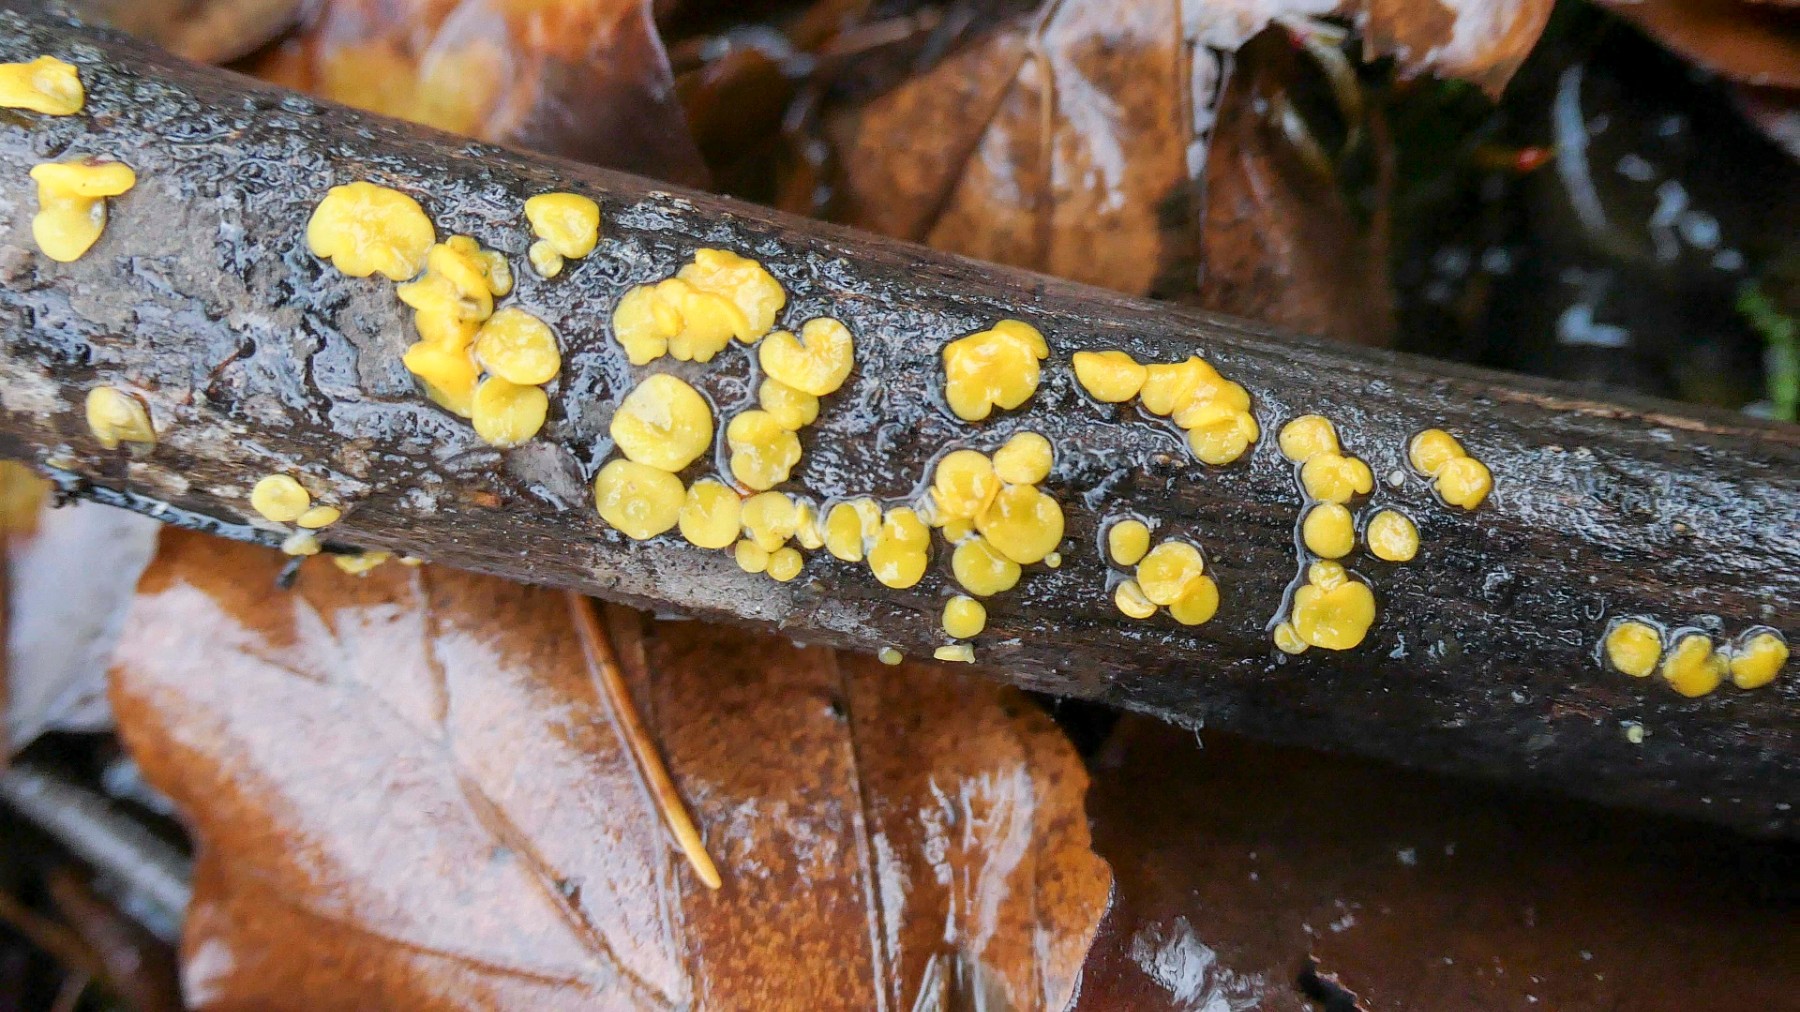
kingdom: Fungi
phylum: Ascomycota
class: Leotiomycetes
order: Helotiales
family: Pezizellaceae
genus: Calycina
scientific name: Calycina citrina
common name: almindelig gulskive
